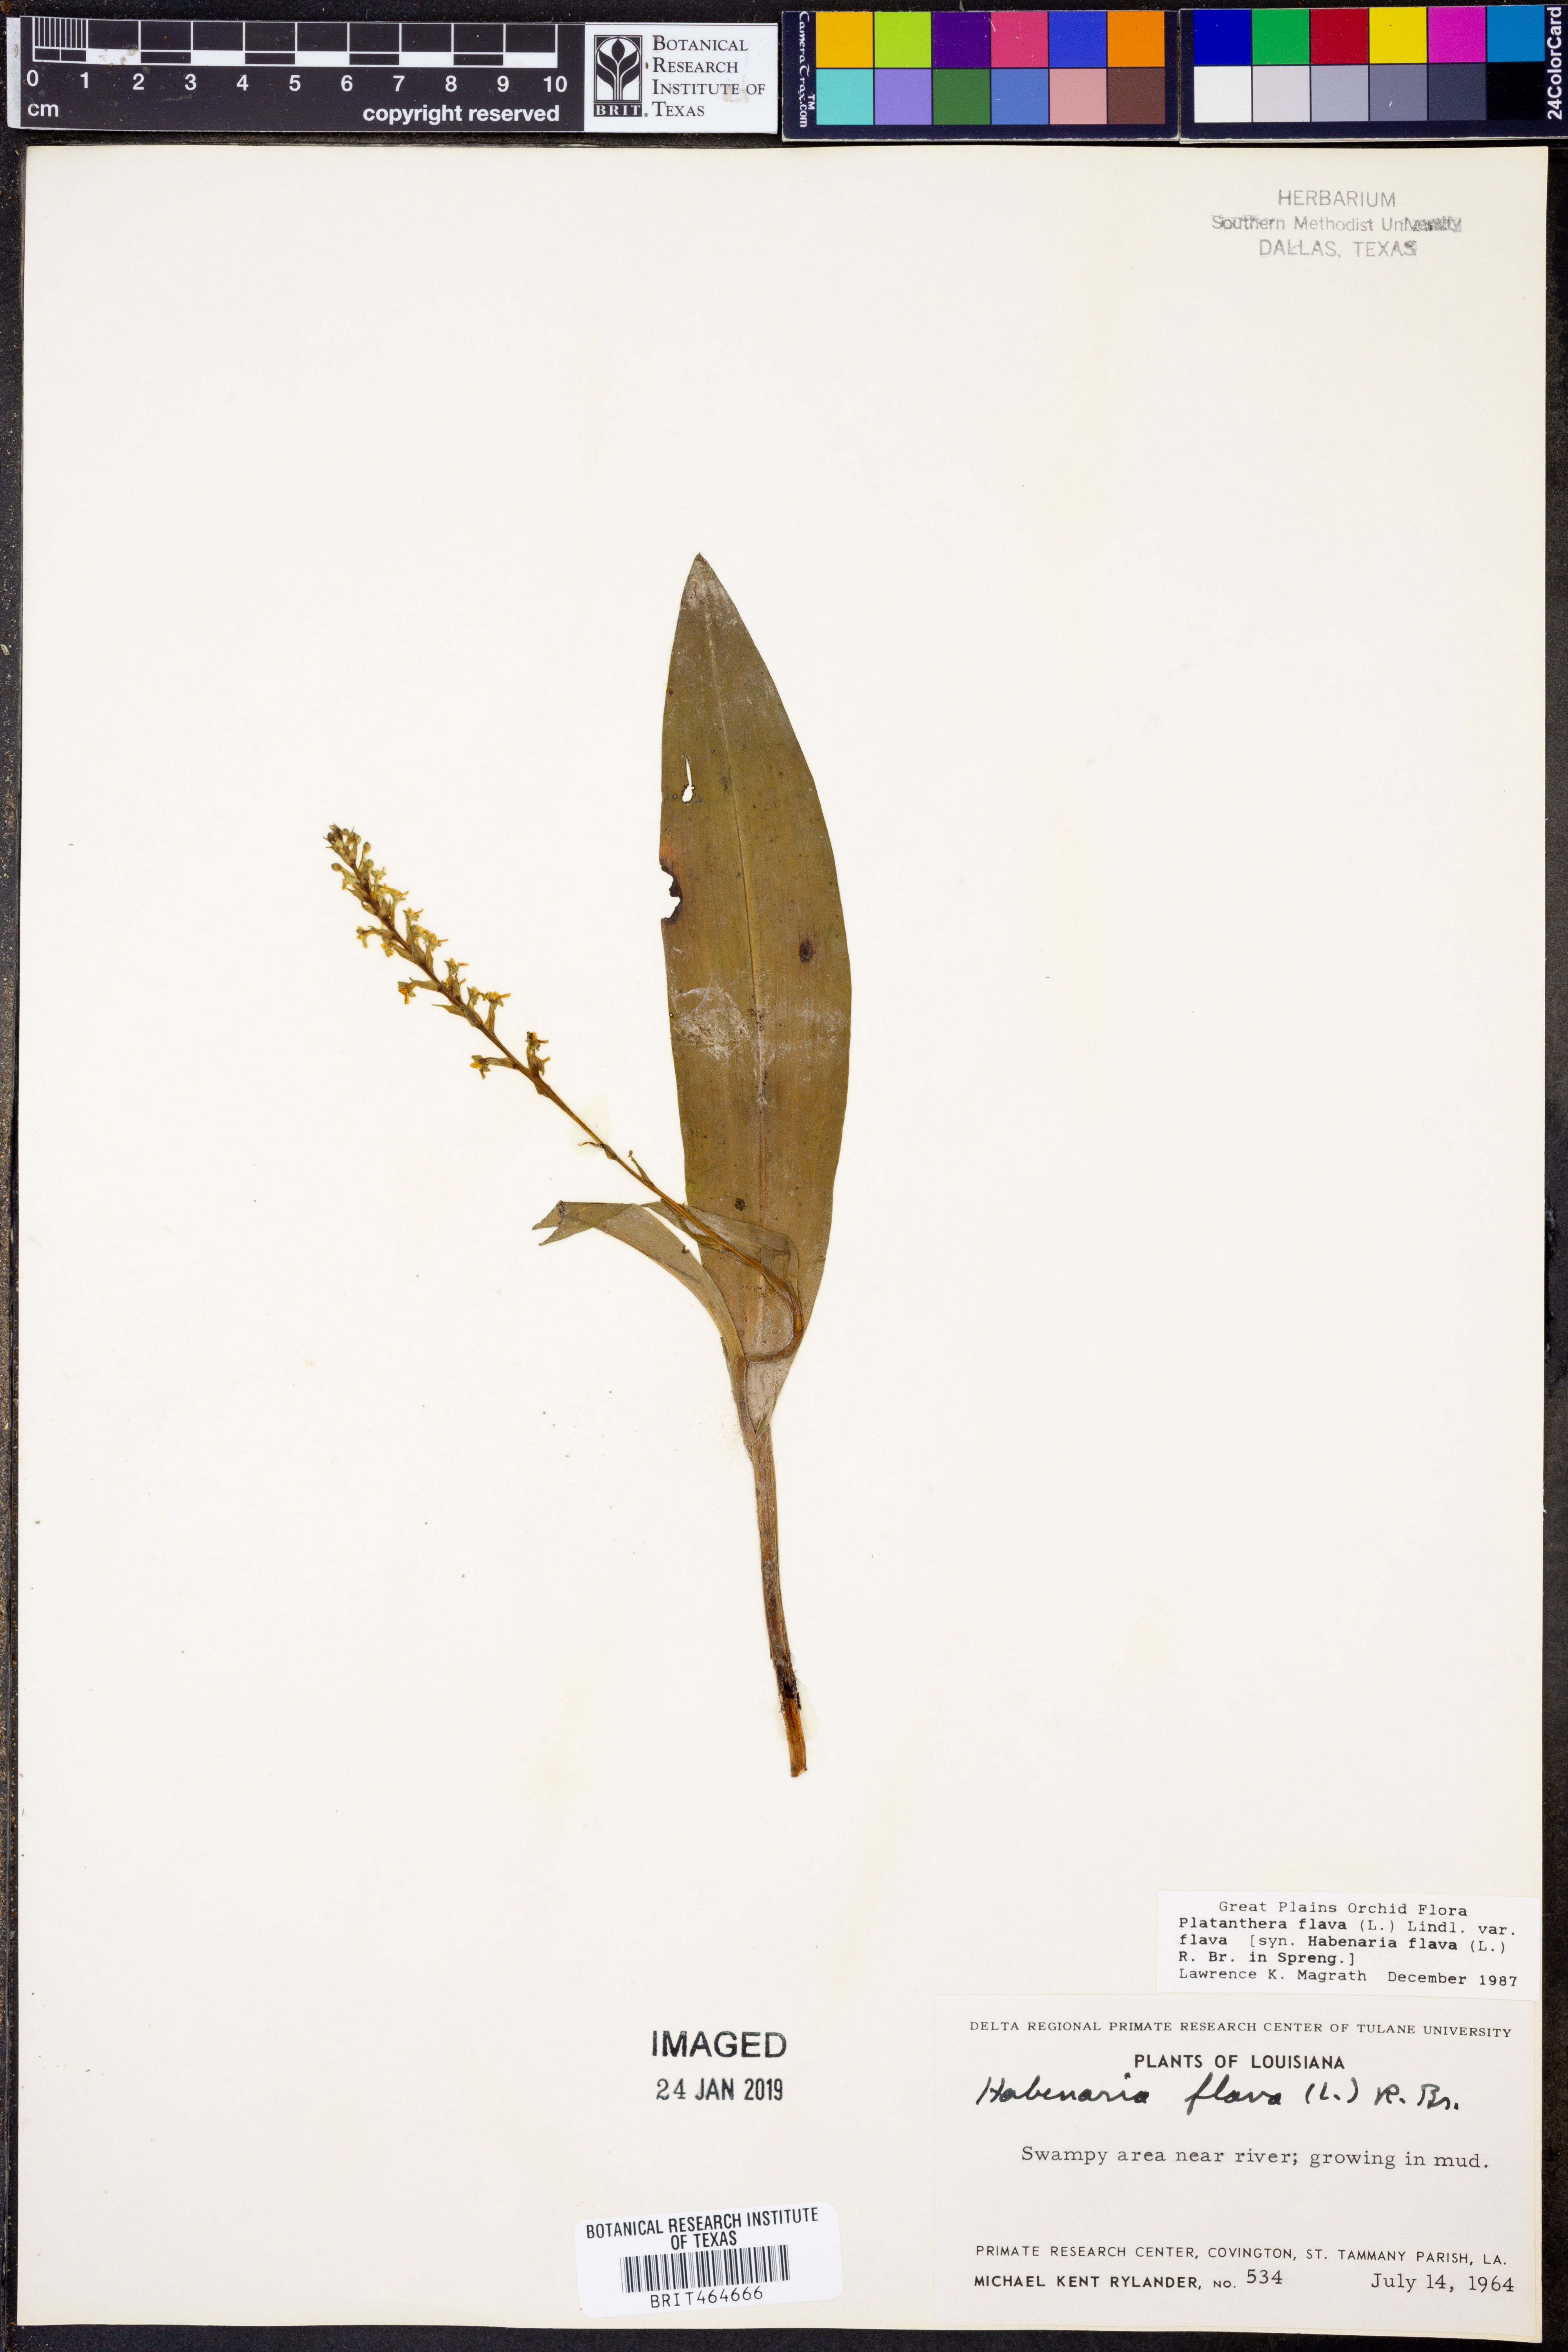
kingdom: Plantae
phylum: Tracheophyta
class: Liliopsida
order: Asparagales
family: Orchidaceae
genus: Platanthera
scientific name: Platanthera flava
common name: Gypsy-spikes
